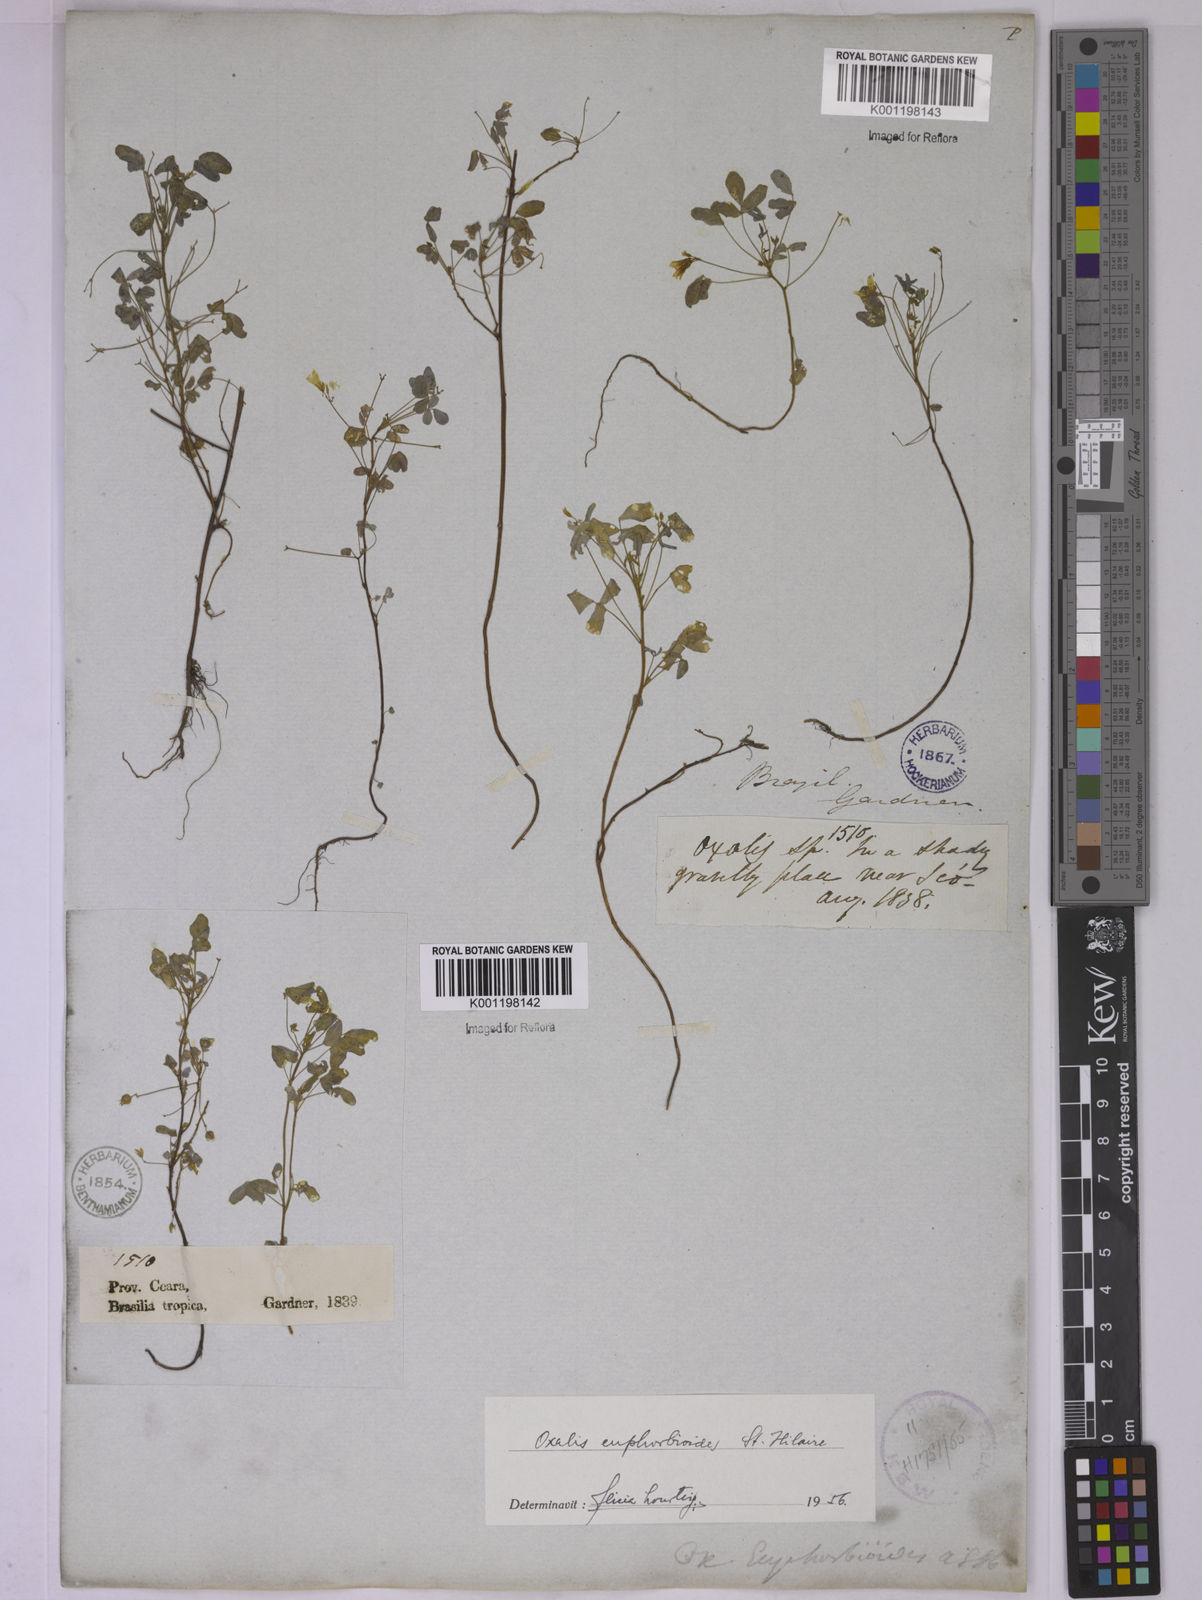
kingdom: Plantae
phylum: Tracheophyta
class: Magnoliopsida
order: Oxalidales
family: Oxalidaceae
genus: Oxalis
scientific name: Oxalis divaricata
